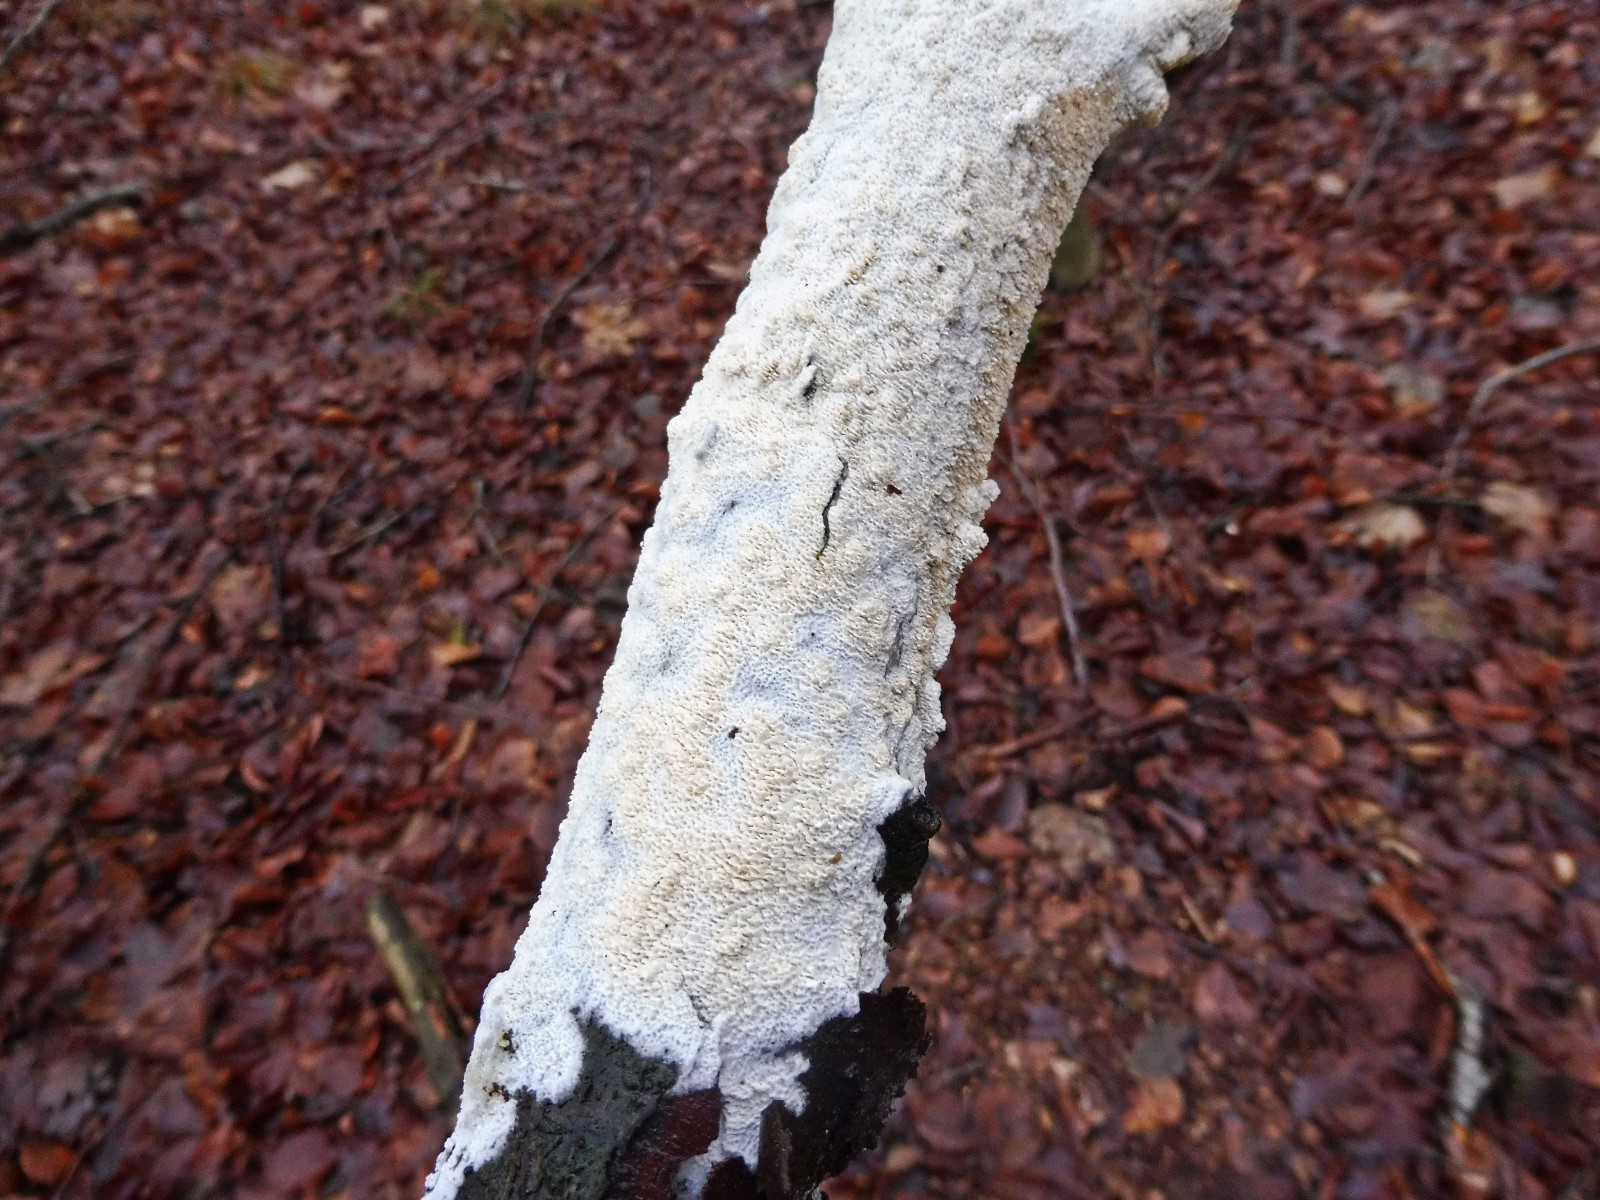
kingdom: Fungi
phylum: Basidiomycota
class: Agaricomycetes
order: Hymenochaetales
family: Schizoporaceae
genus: Schizopora
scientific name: Schizopora paradoxa
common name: hvid tandsvamp
